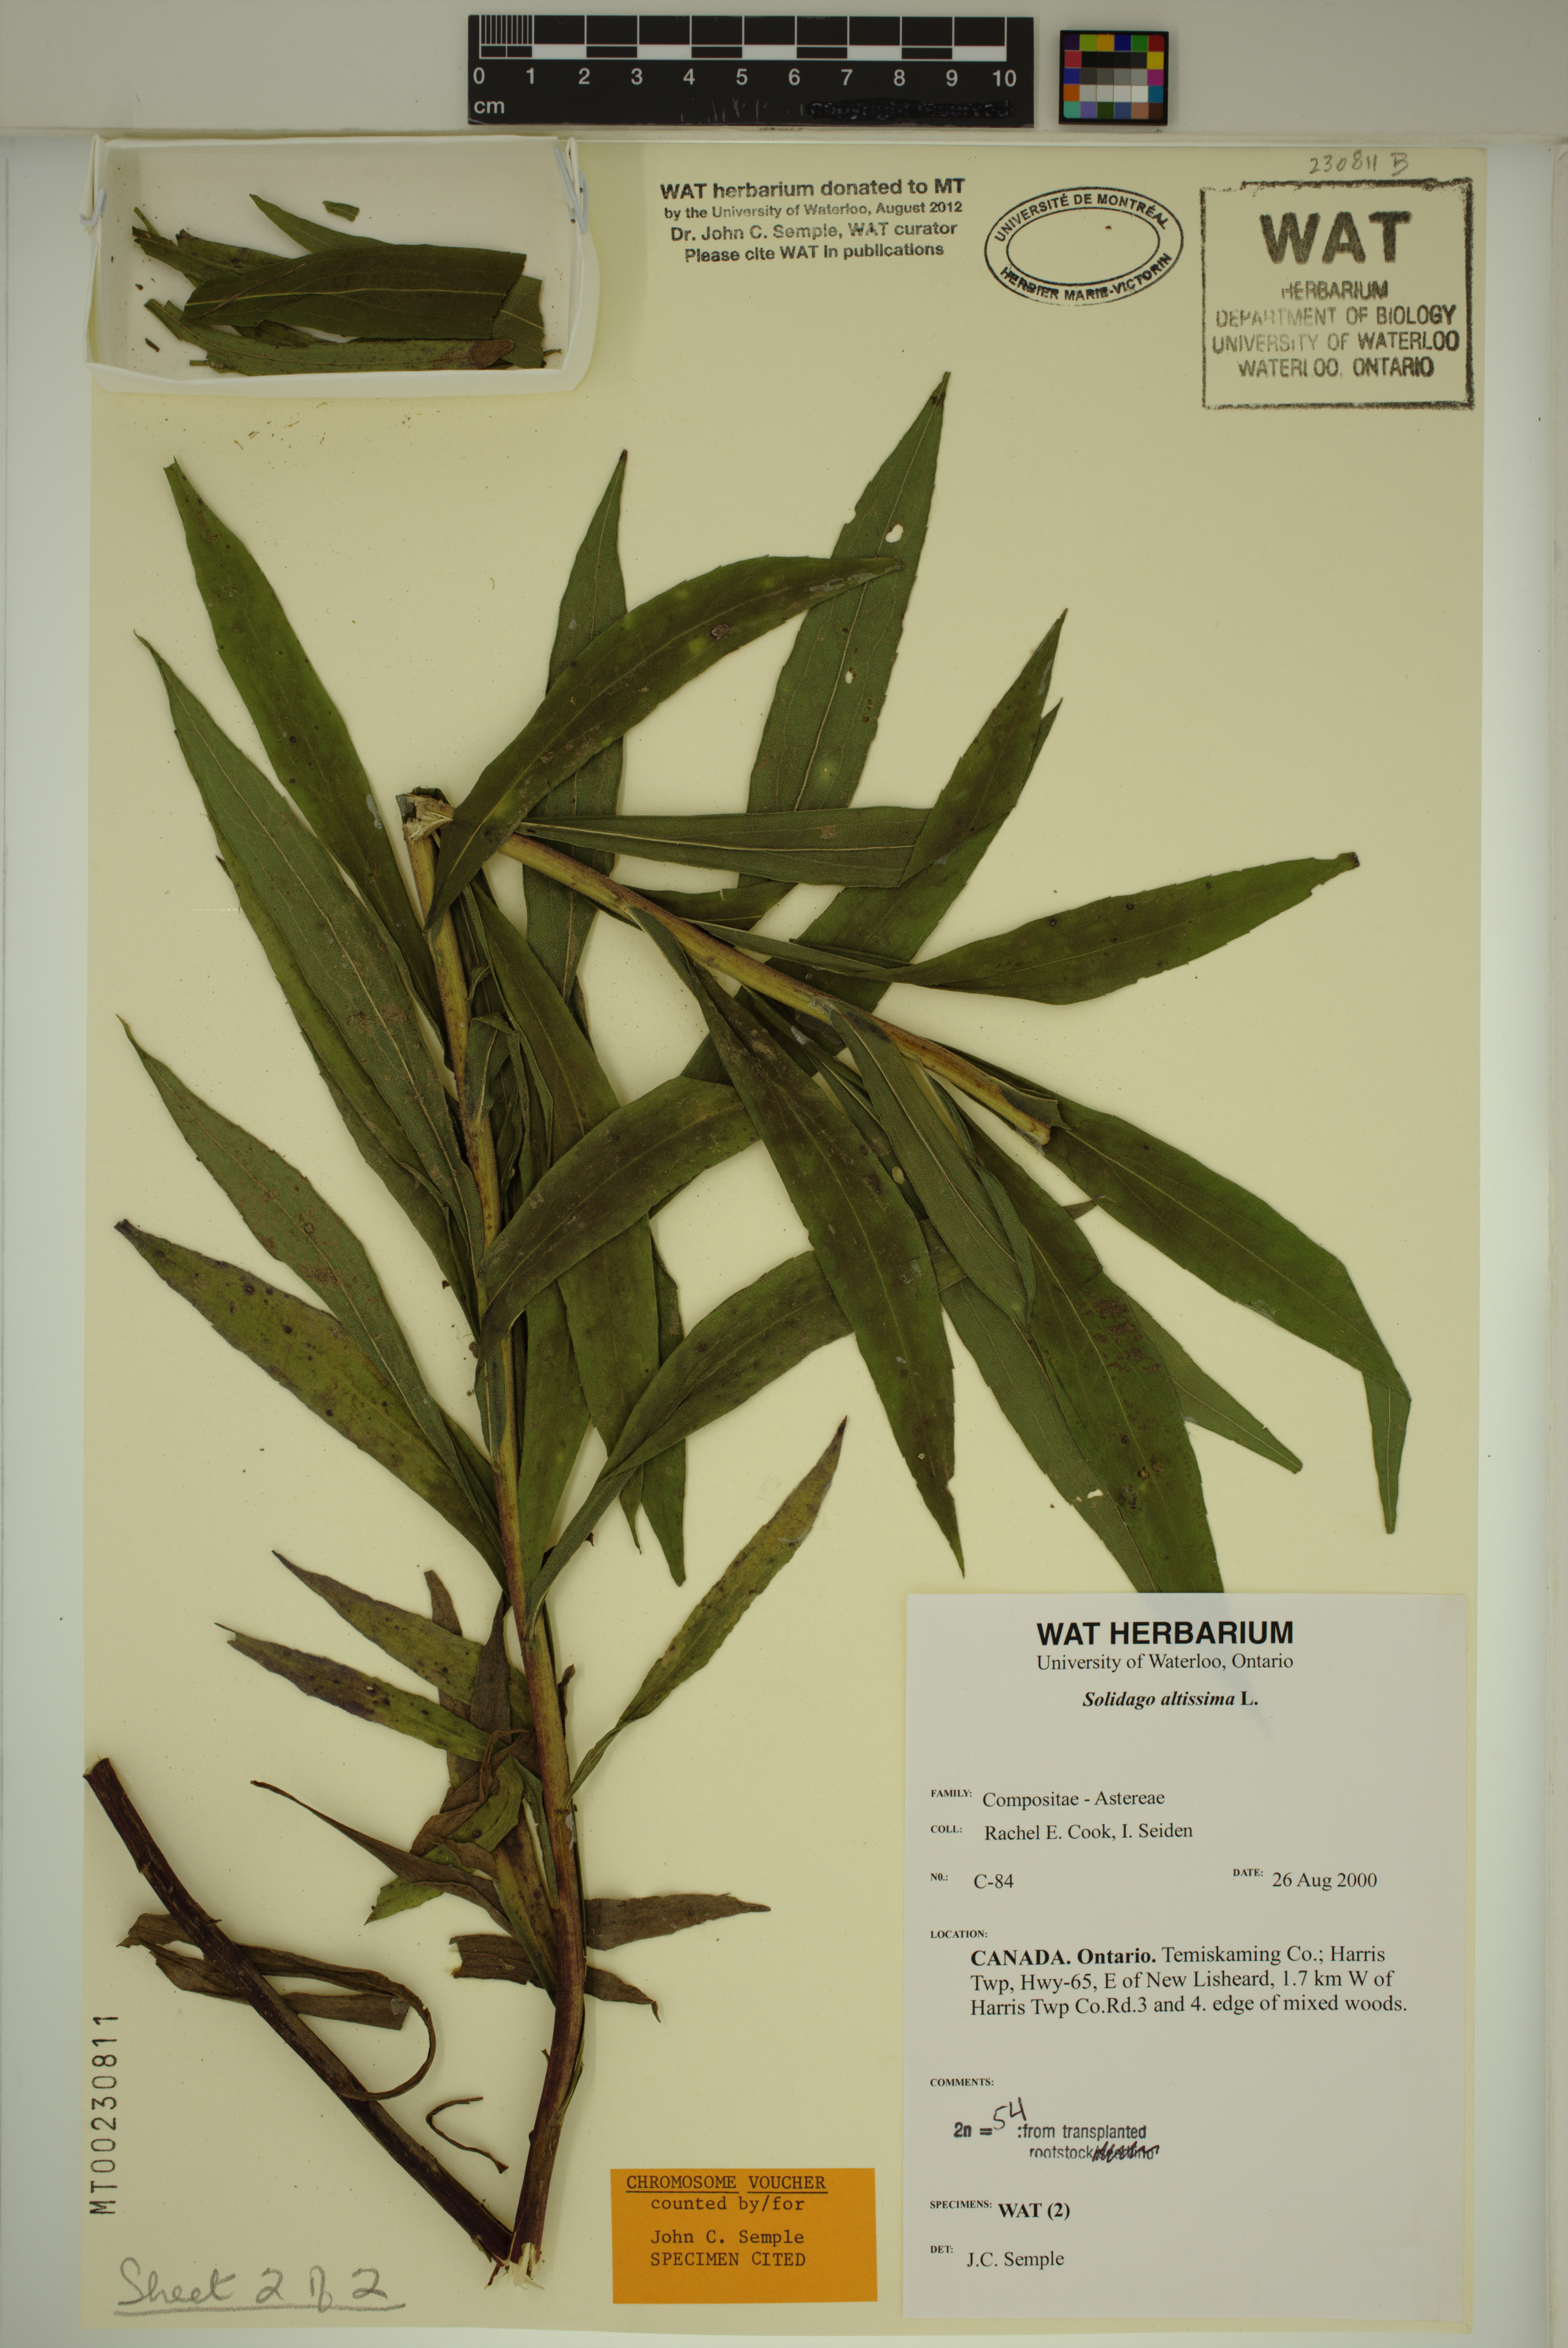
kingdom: Plantae
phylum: Tracheophyta
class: Magnoliopsida
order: Asterales
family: Asteraceae
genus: Solidago
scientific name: Solidago fallax
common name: Big-toothed canada goldenrod
